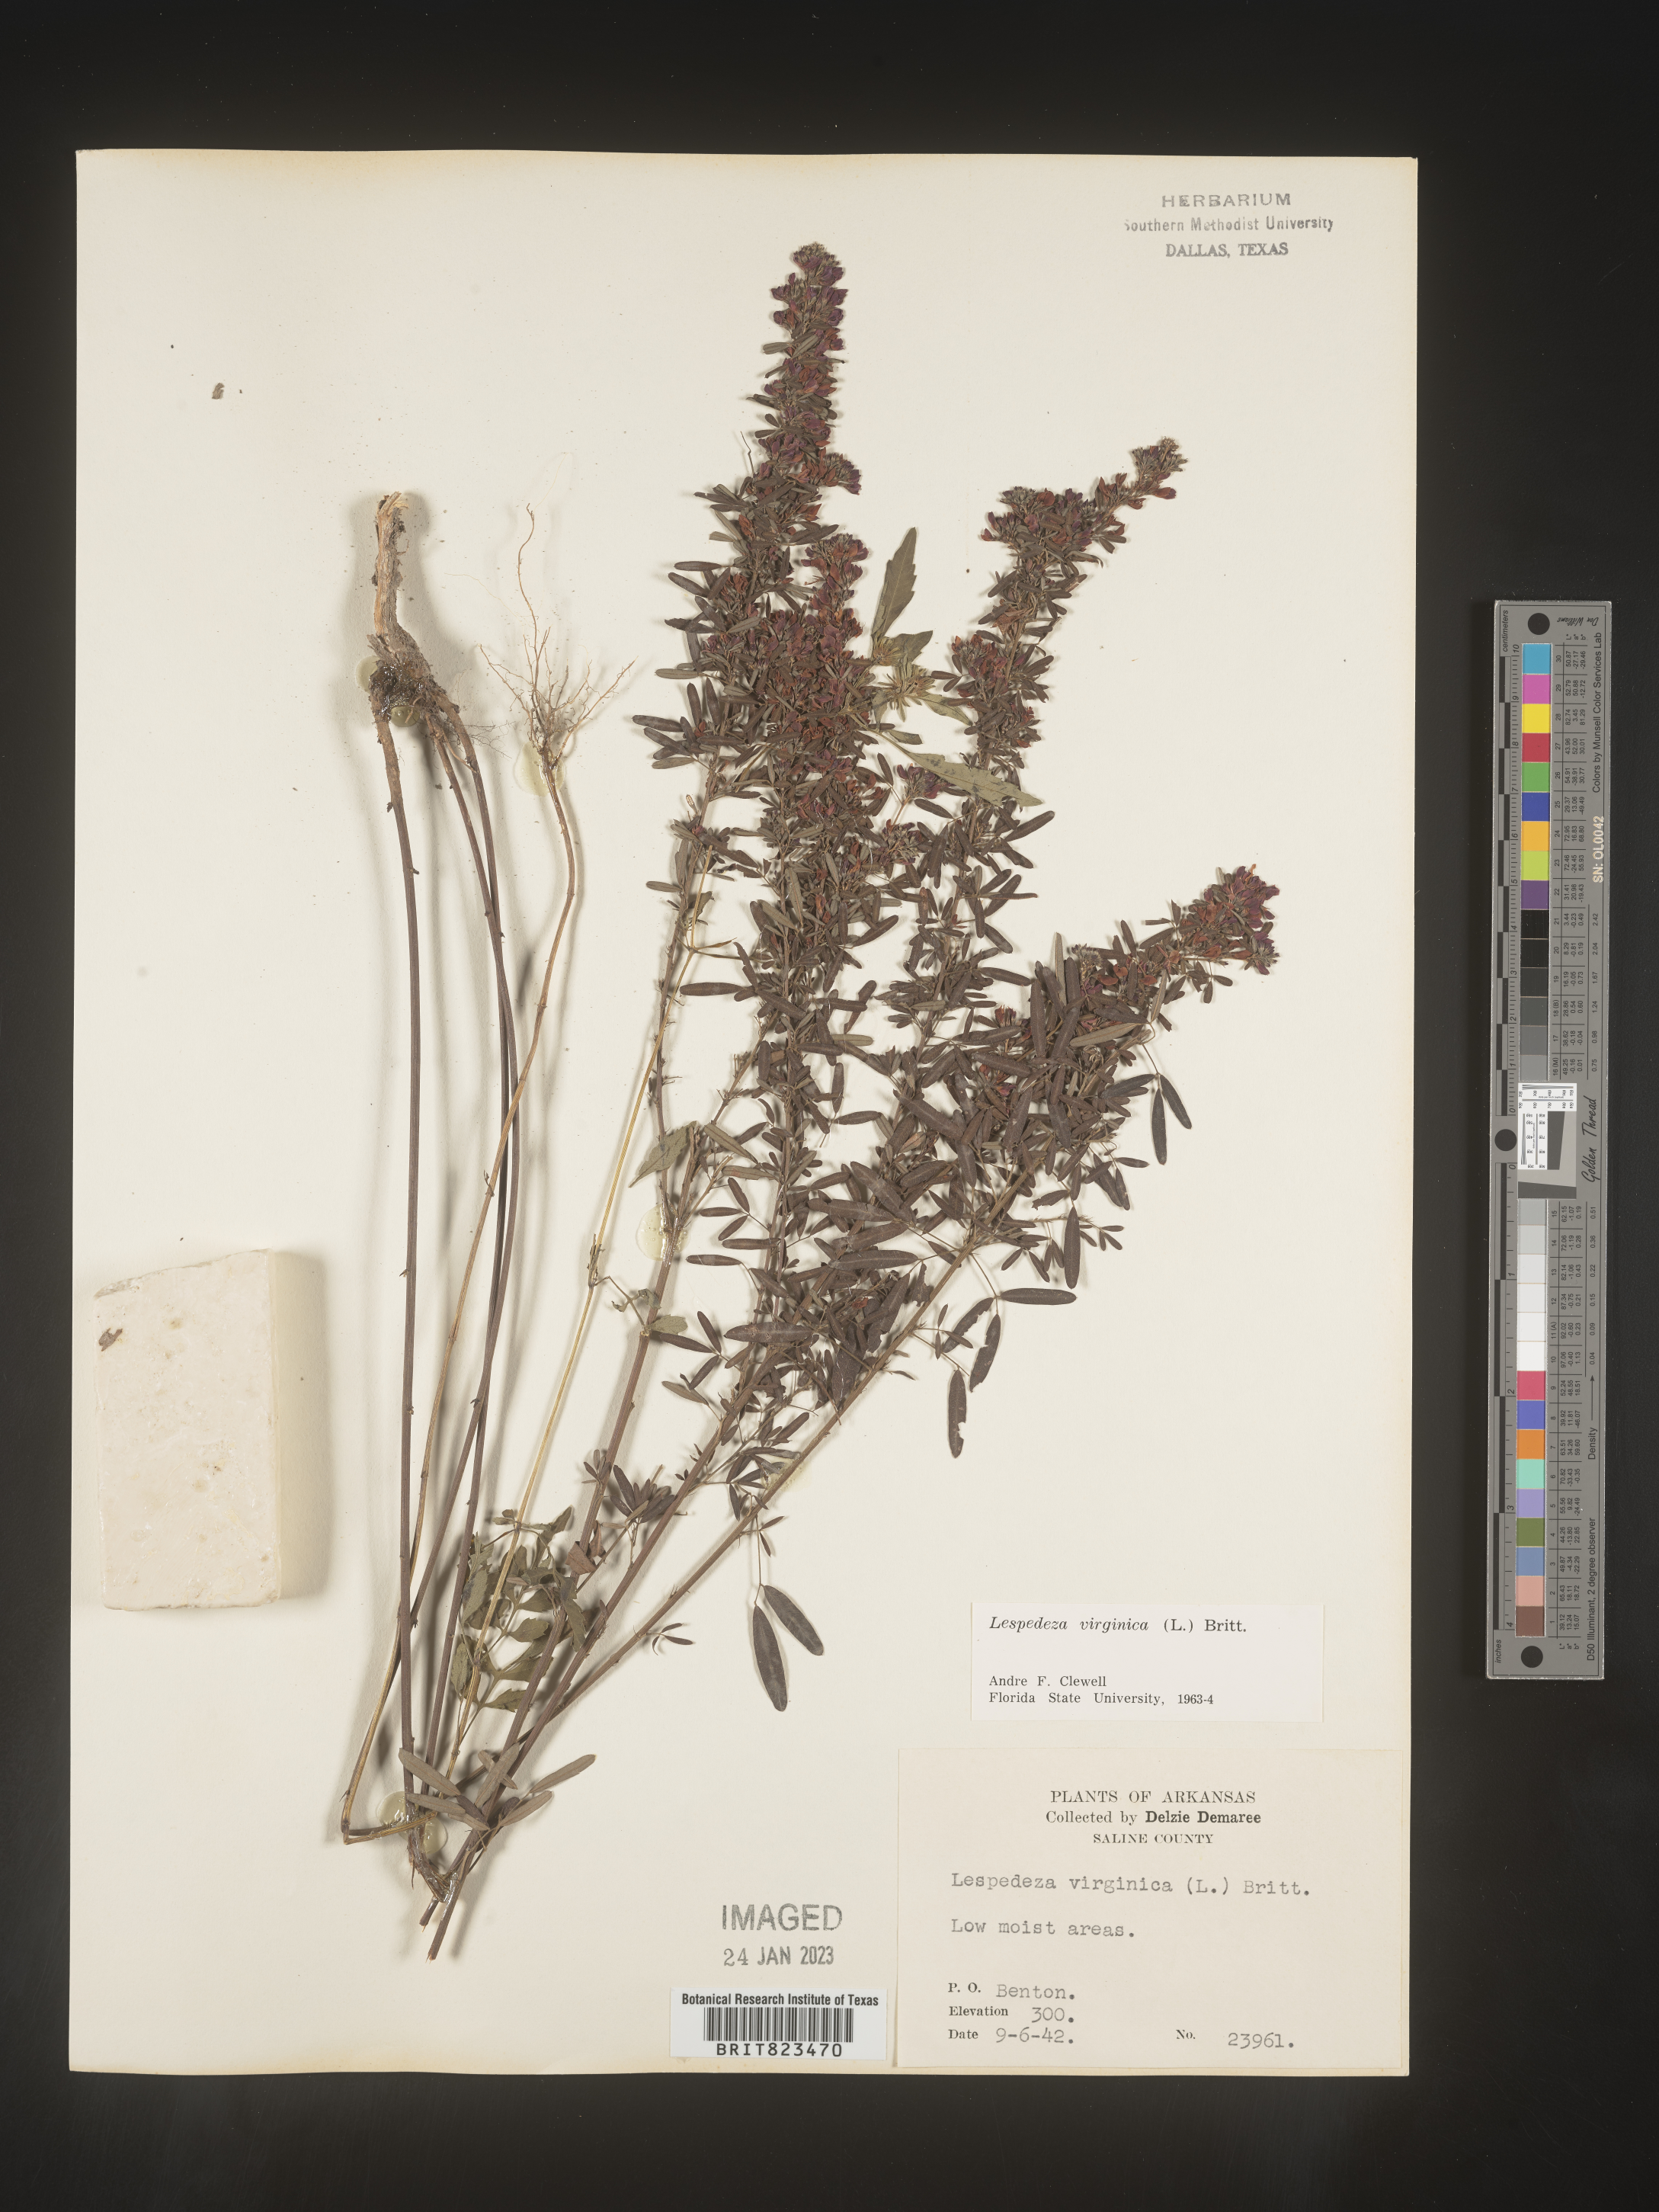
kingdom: Plantae
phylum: Tracheophyta
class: Magnoliopsida
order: Fabales
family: Fabaceae
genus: Lespedeza
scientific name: Lespedeza virginica
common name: Slender bush-clover
